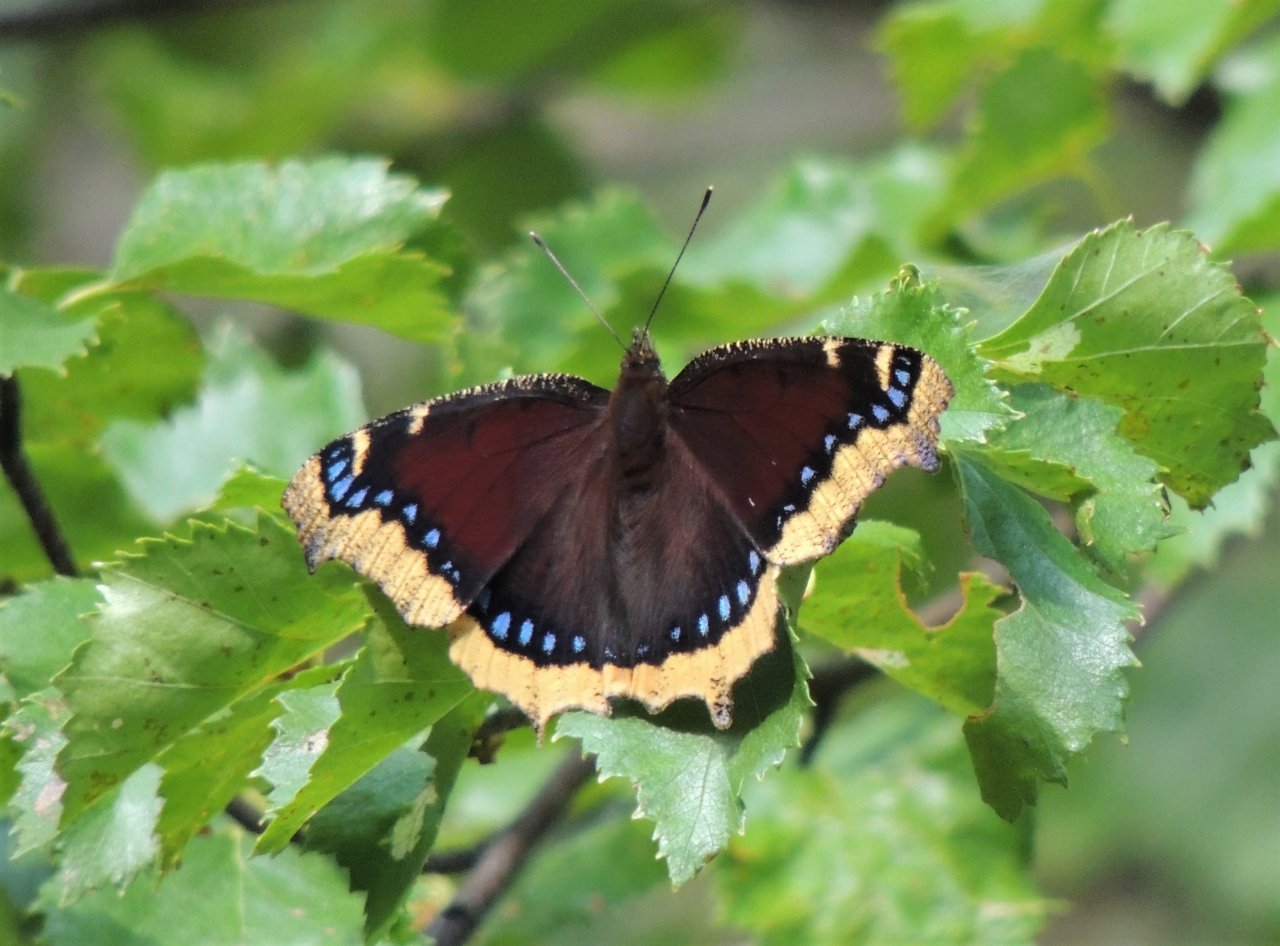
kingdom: Animalia
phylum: Arthropoda
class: Insecta
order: Lepidoptera
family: Nymphalidae
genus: Nymphalis
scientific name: Nymphalis antiopa
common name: Mourning Cloak
